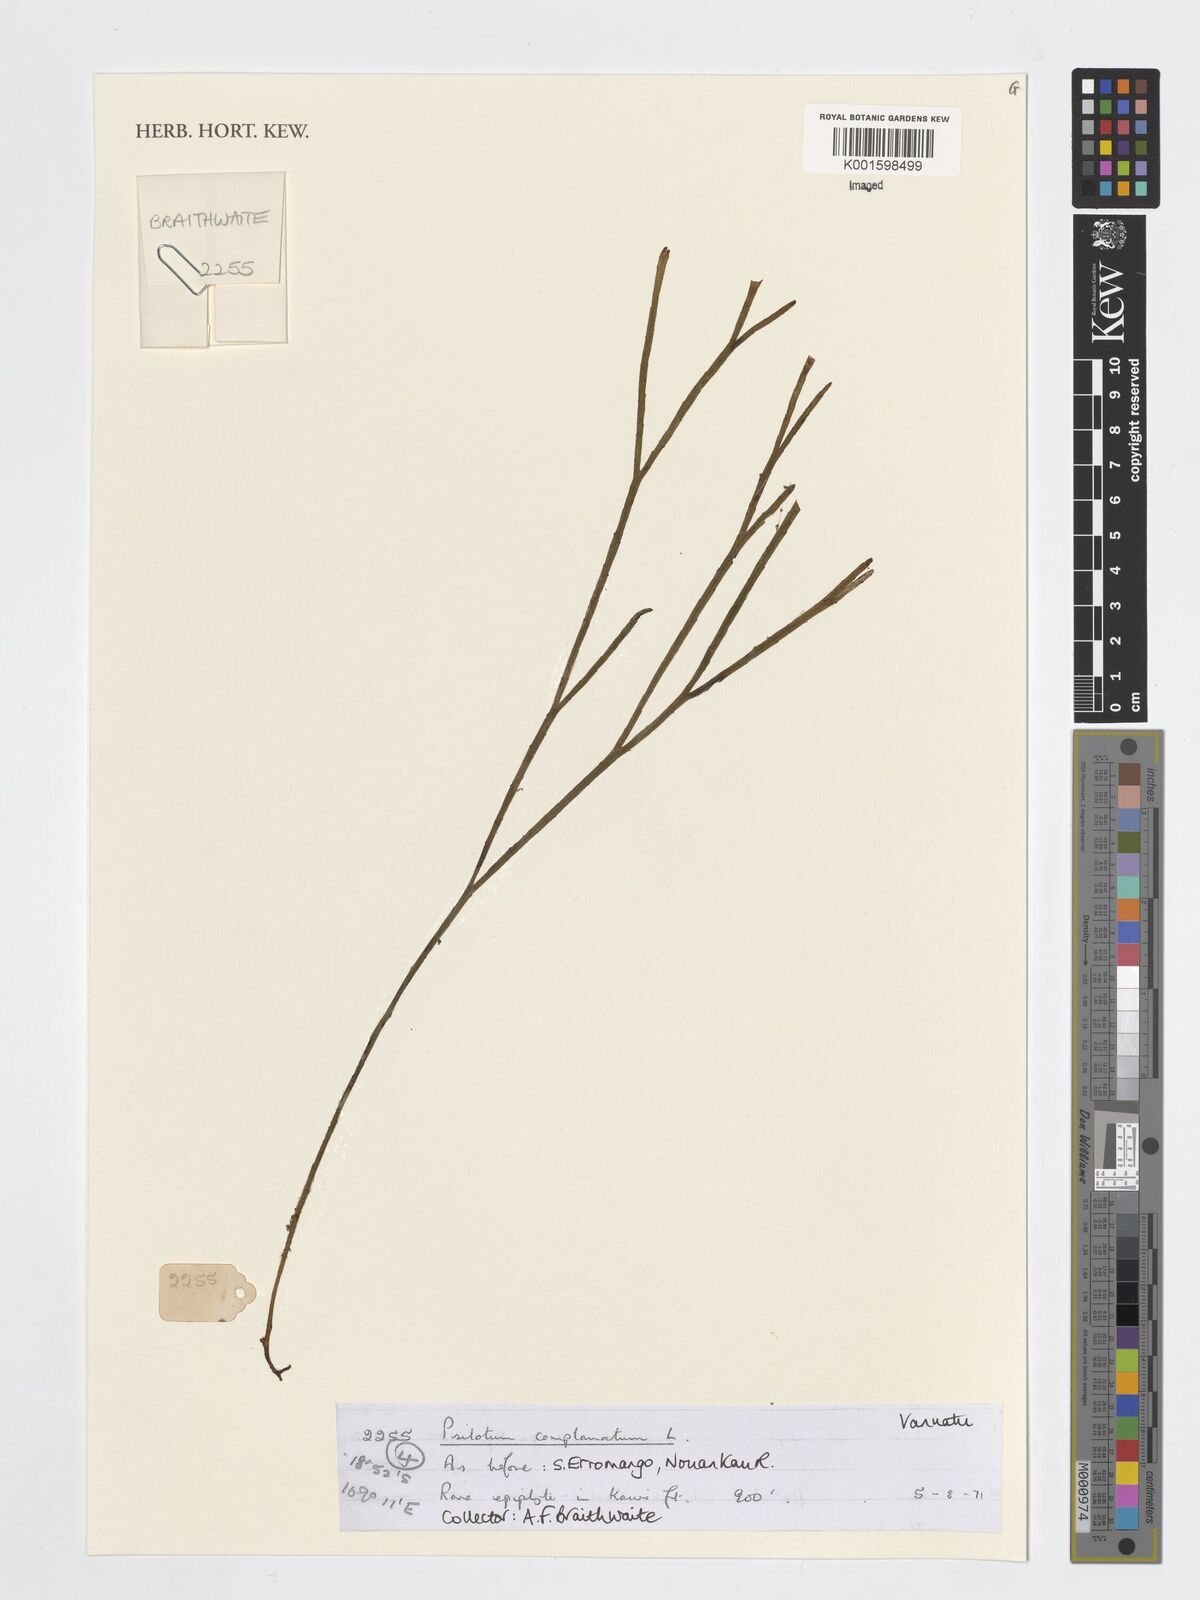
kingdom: Plantae
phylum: Tracheophyta
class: Polypodiopsida
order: Psilotales
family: Psilotaceae
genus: Psilotum
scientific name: Psilotum complanatum
